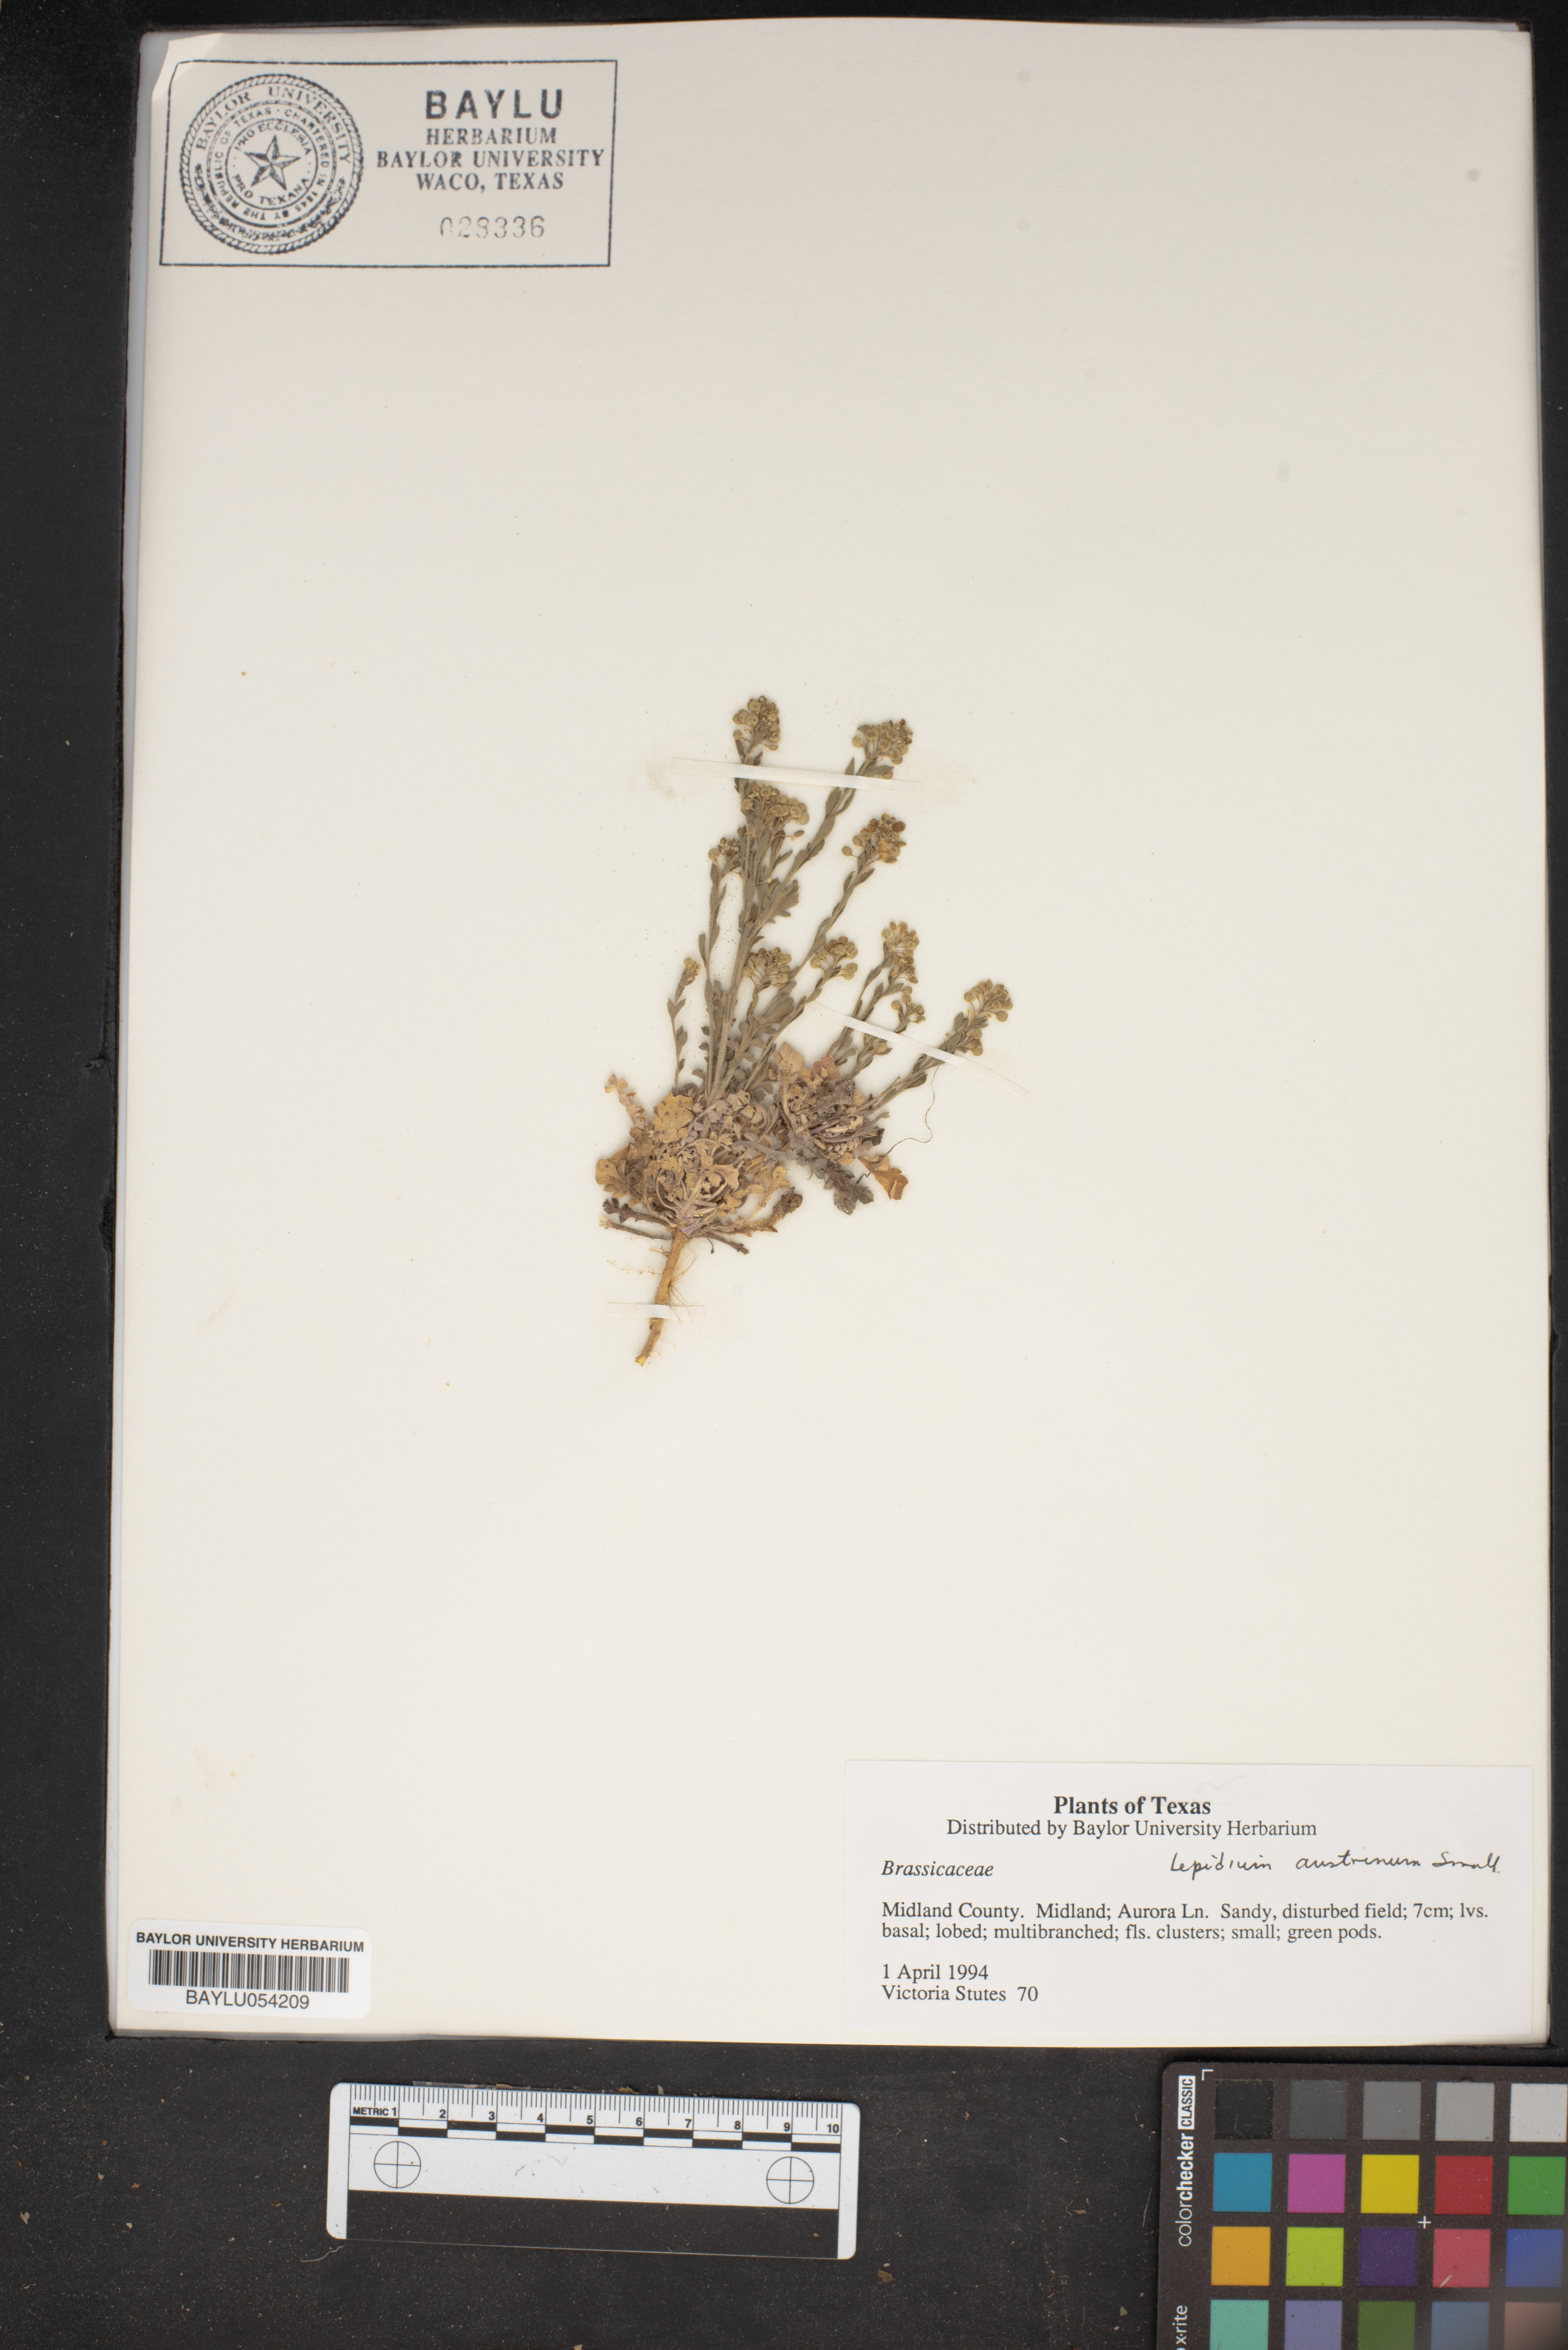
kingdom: Plantae
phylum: Tracheophyta
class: Magnoliopsida
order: Brassicales
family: Brassicaceae
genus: Lepidium
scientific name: Lepidium austrinum
